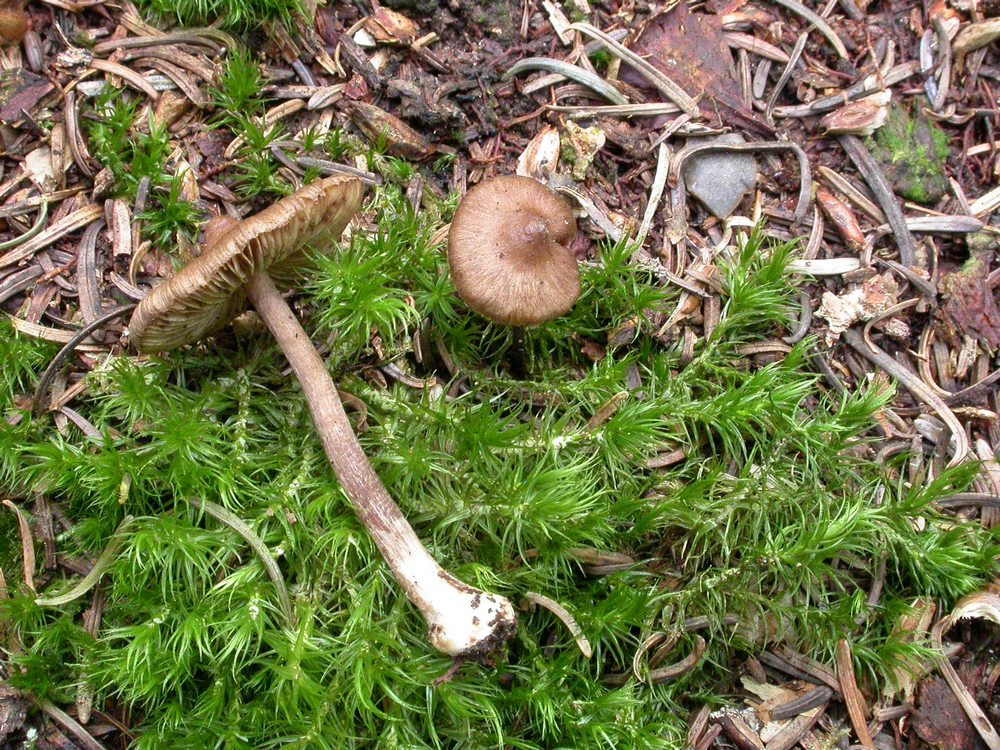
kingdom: Fungi
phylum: Basidiomycota
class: Agaricomycetes
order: Agaricales
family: Inocybaceae
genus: Inocybe
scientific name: Inocybe napipes
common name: roeknoldet trævlhat
